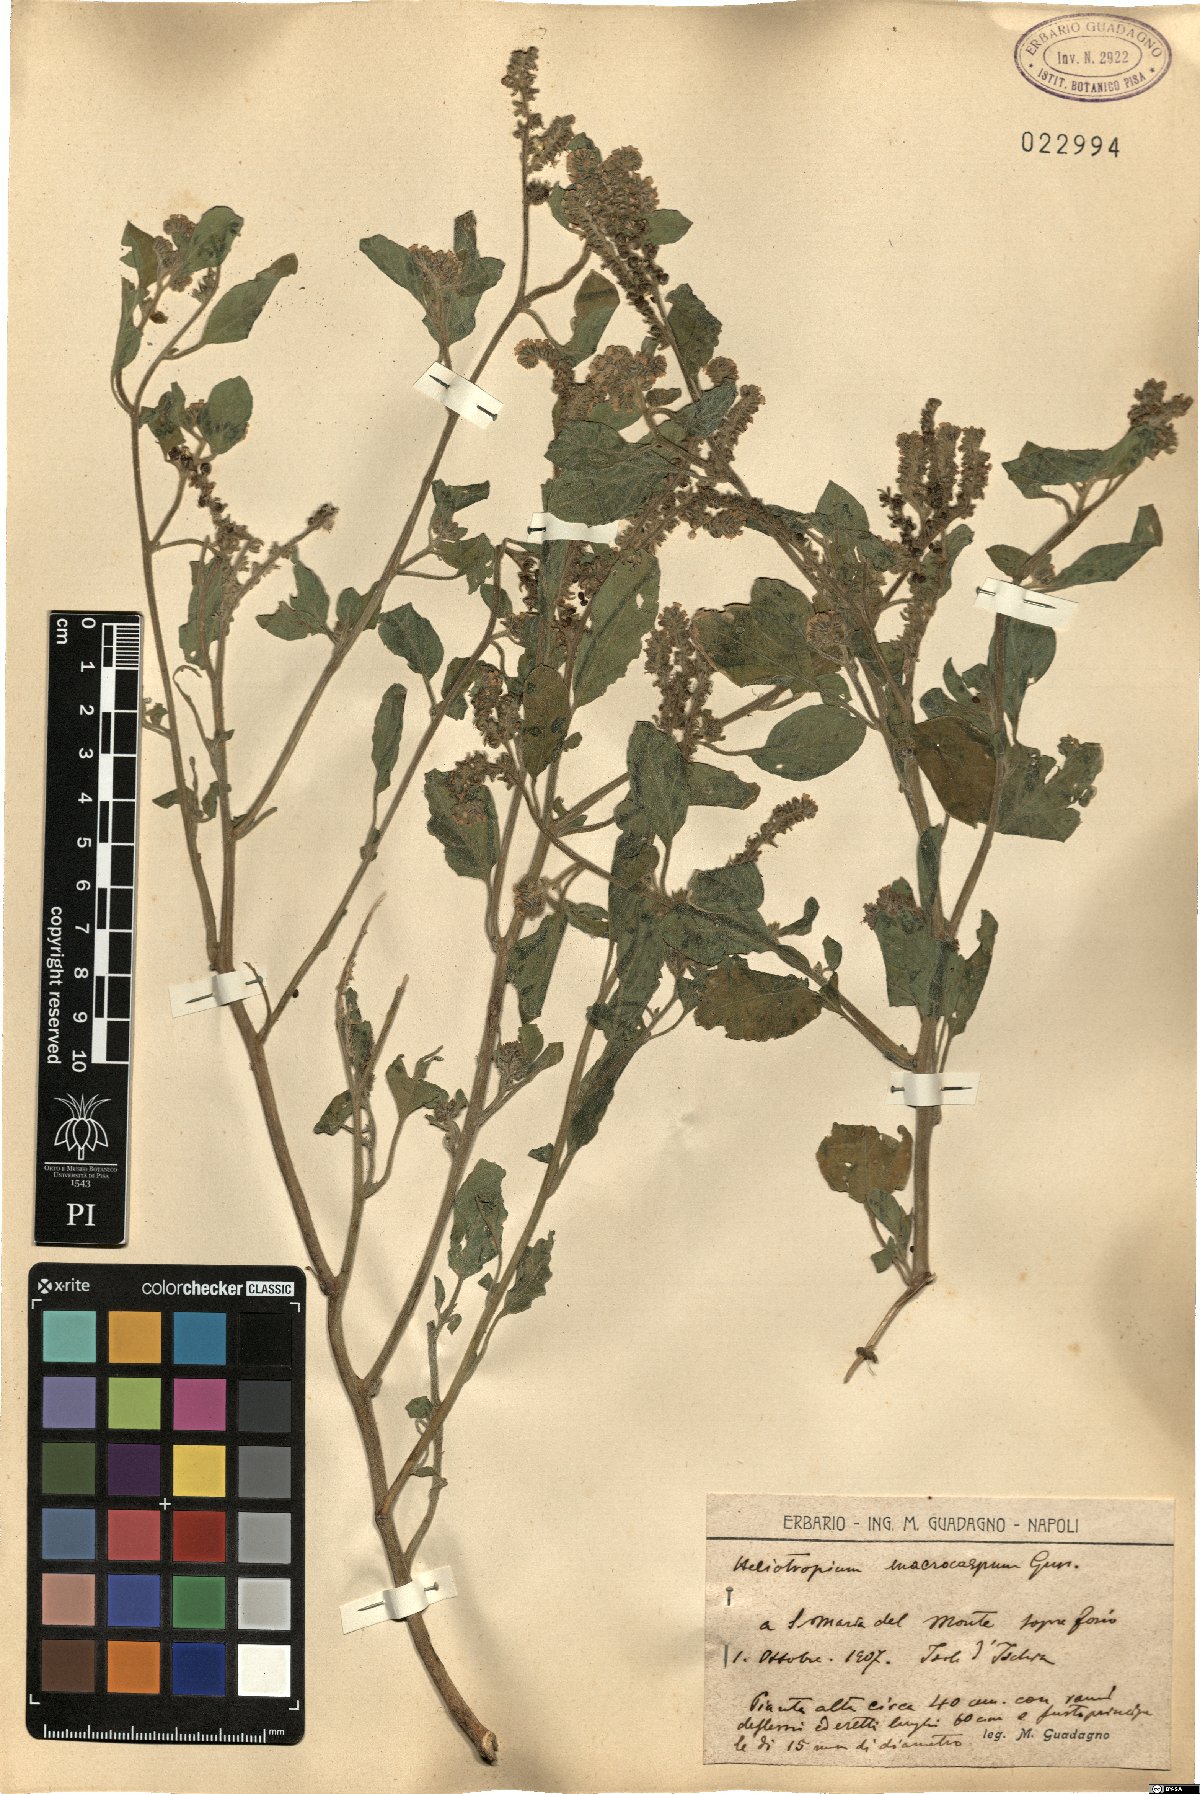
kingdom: Plantae
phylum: Tracheophyta
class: Magnoliopsida
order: Boraginales
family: Heliotropiaceae
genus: Heliotropium
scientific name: Heliotropium dolosum
